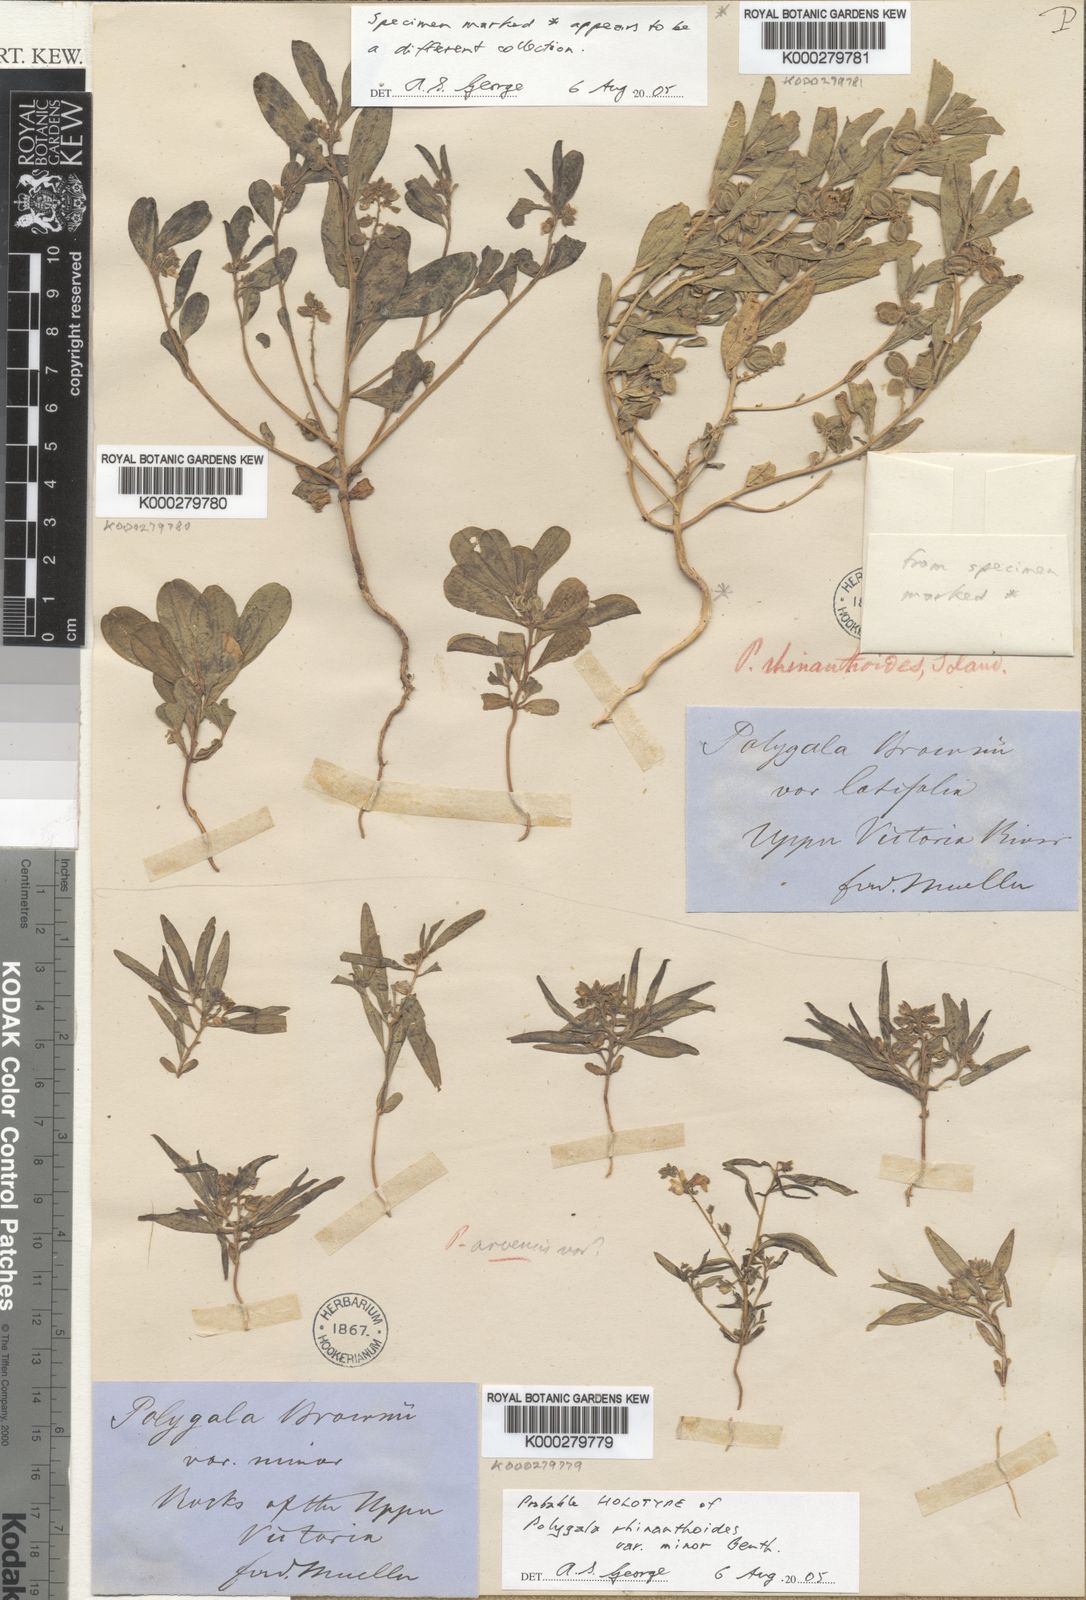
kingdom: Plantae
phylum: Tracheophyta
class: Magnoliopsida
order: Fabales
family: Polygalaceae
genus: Polygala
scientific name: Polygala rhinanthoides
